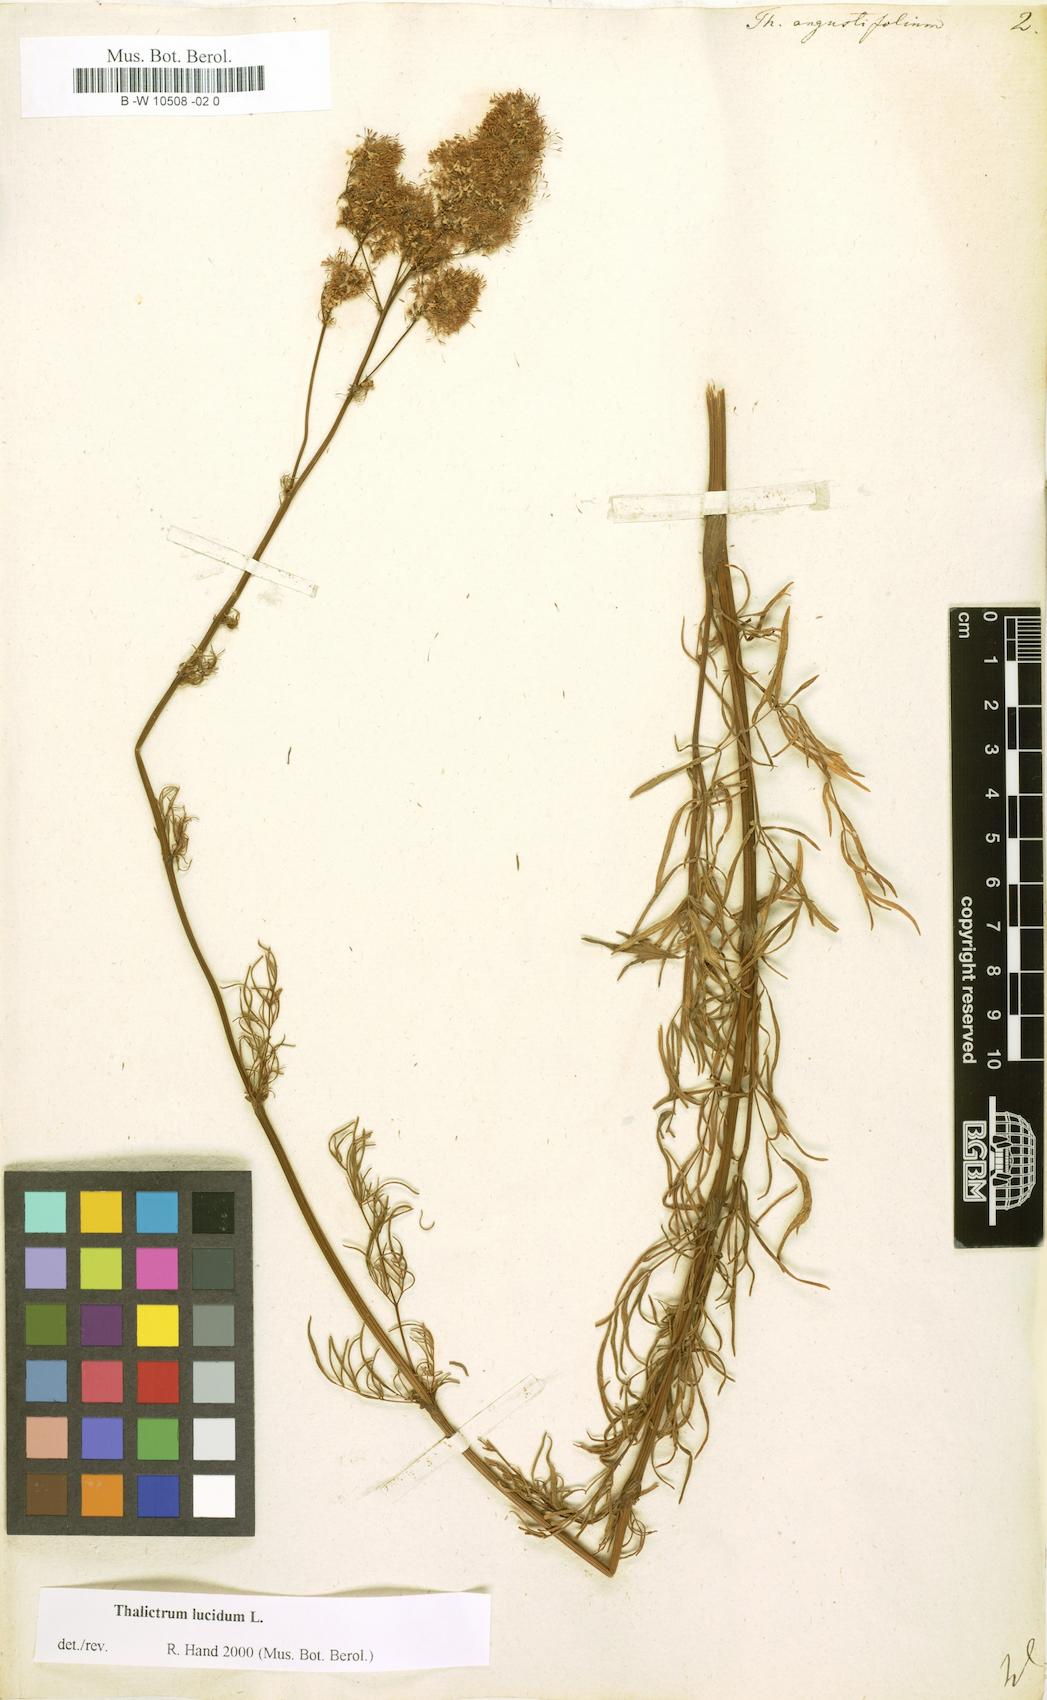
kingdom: Plantae
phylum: Tracheophyta
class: Magnoliopsida
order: Ranunculales
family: Ranunculaceae
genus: Thalictrum
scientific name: Thalictrum lucidum
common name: Shining meadow-rue
